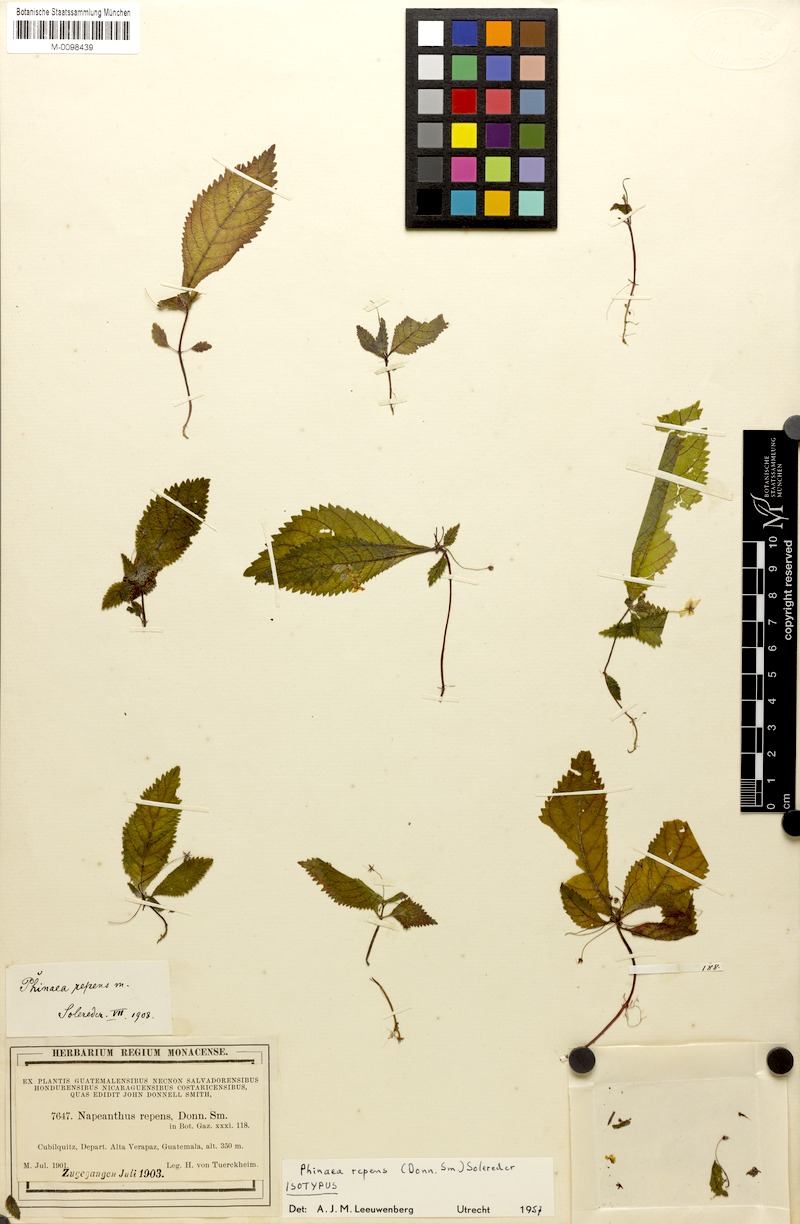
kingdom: Plantae
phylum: Tracheophyta
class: Magnoliopsida
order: Lamiales
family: Gesneriaceae
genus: Amalophyllon
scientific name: Amalophyllon repens
